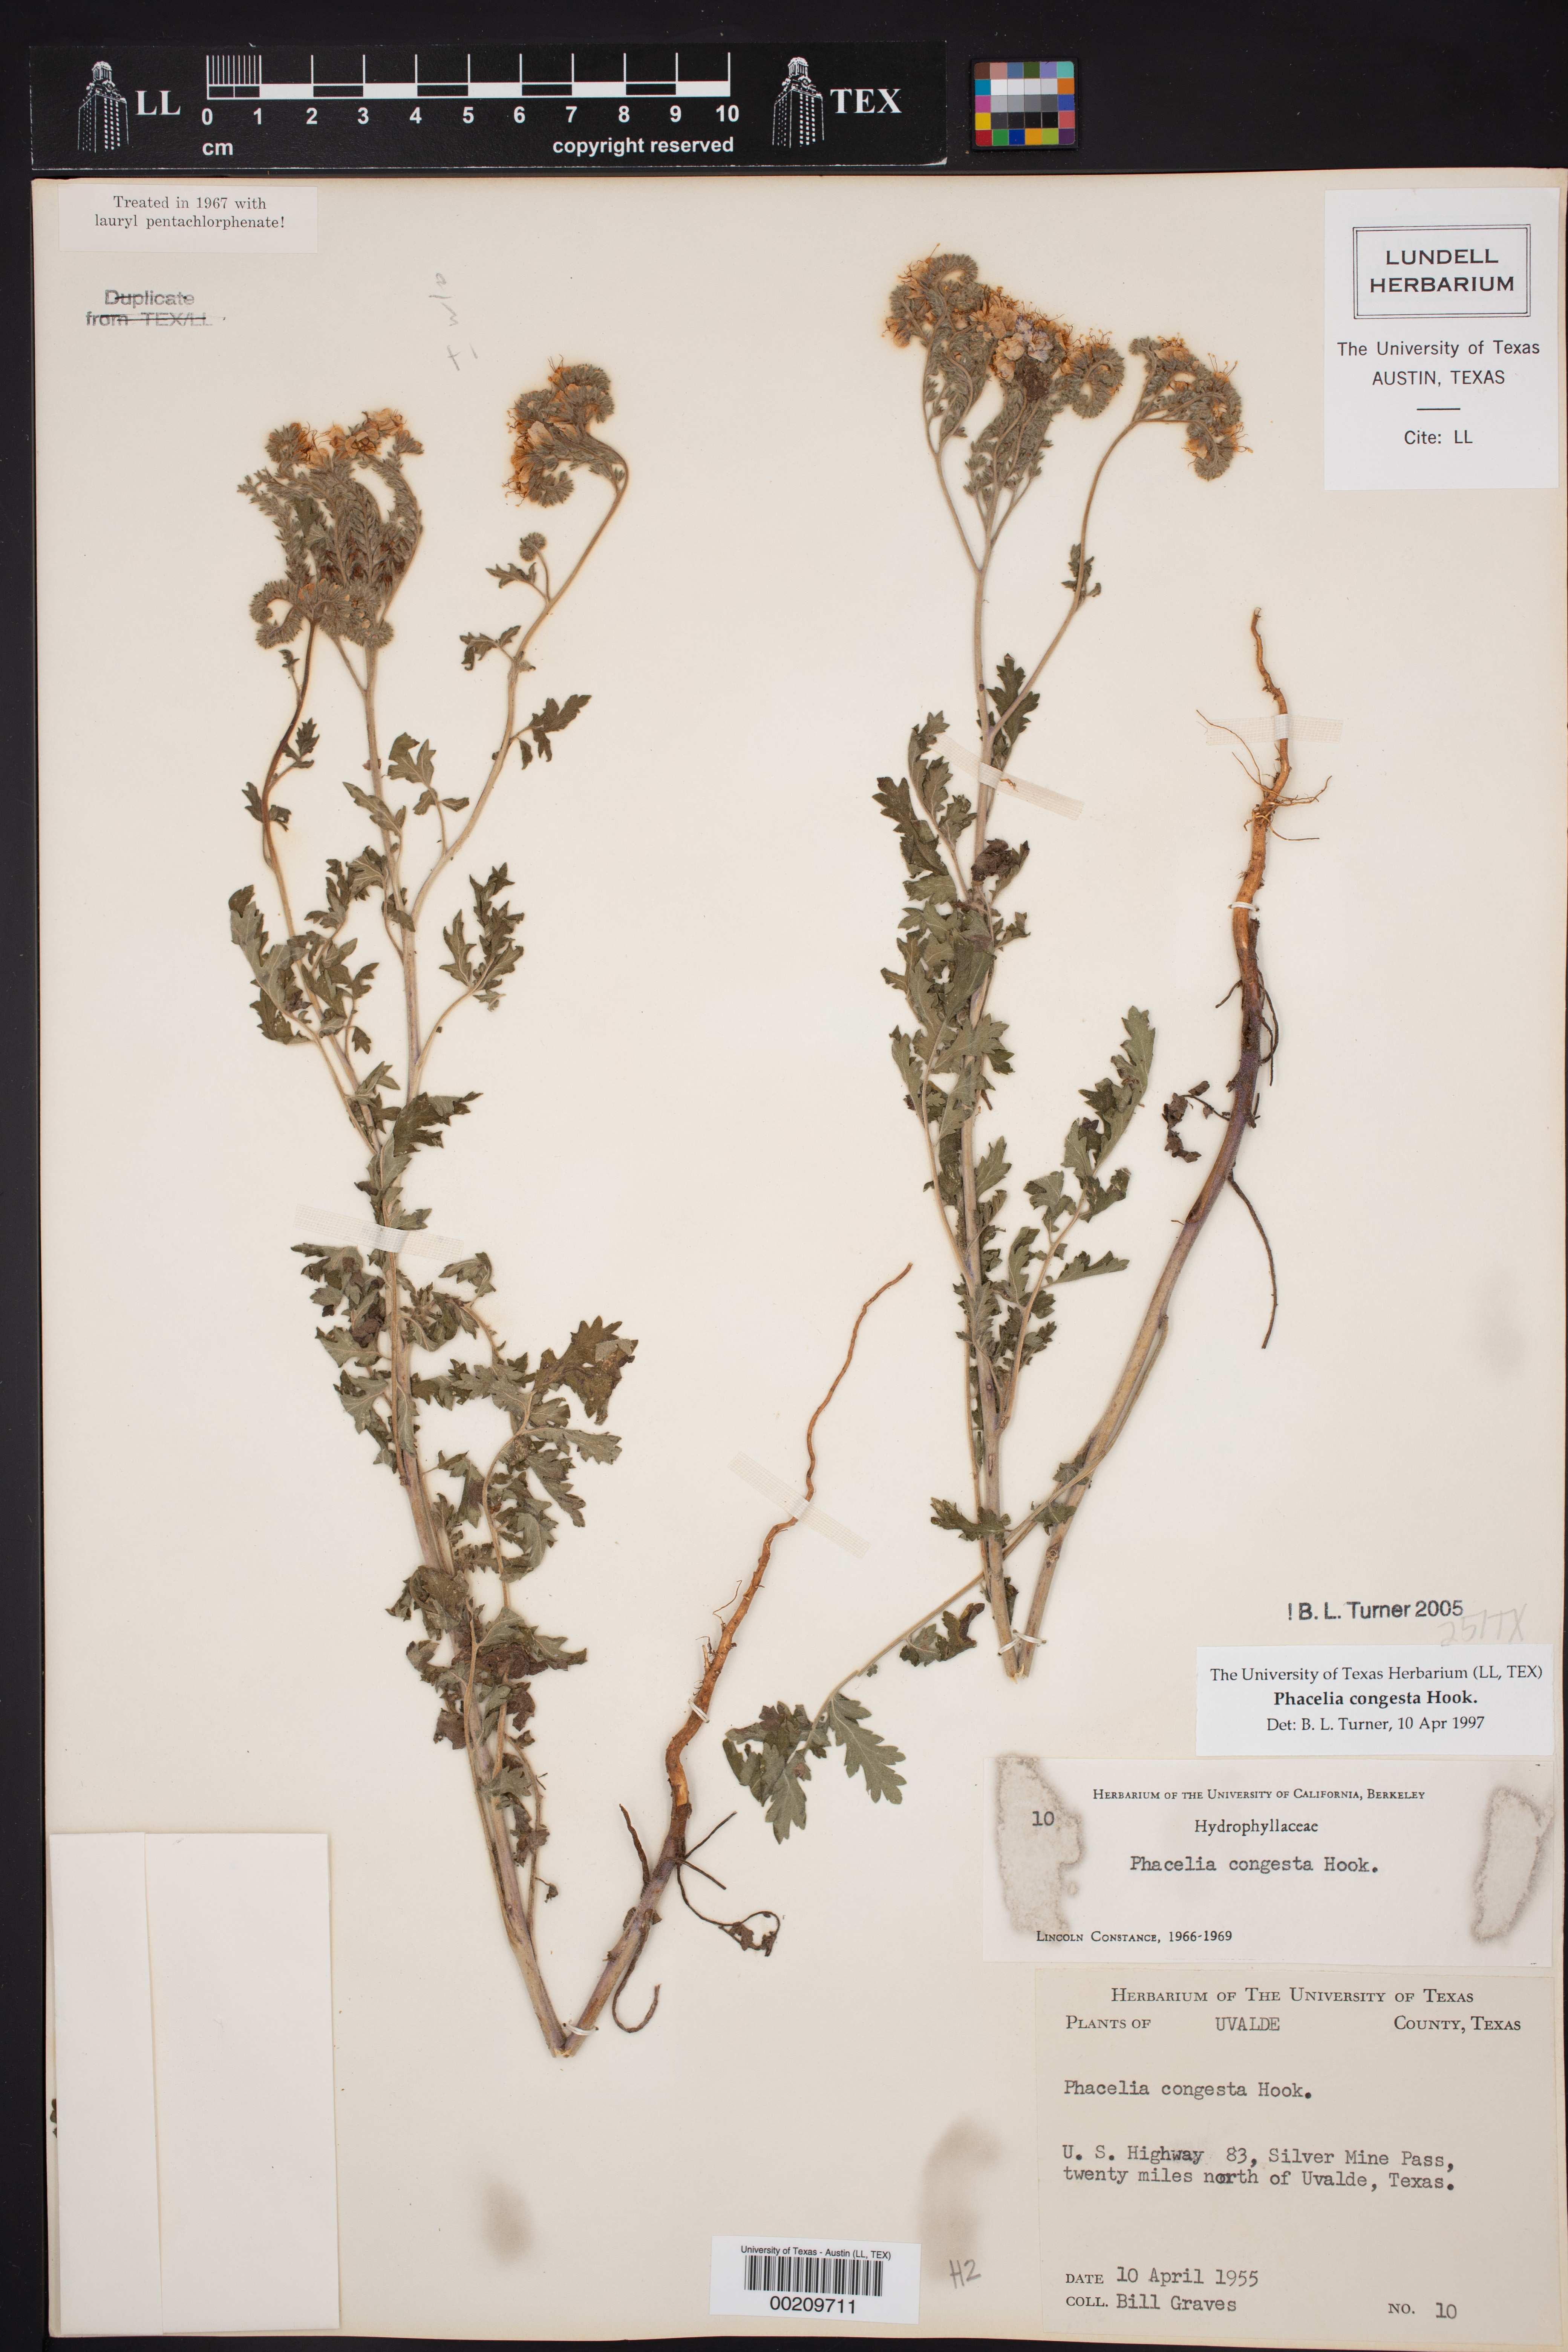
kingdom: Plantae
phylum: Tracheophyta
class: Magnoliopsida
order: Boraginales
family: Hydrophyllaceae
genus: Phacelia
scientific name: Phacelia congesta
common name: Blue curls
